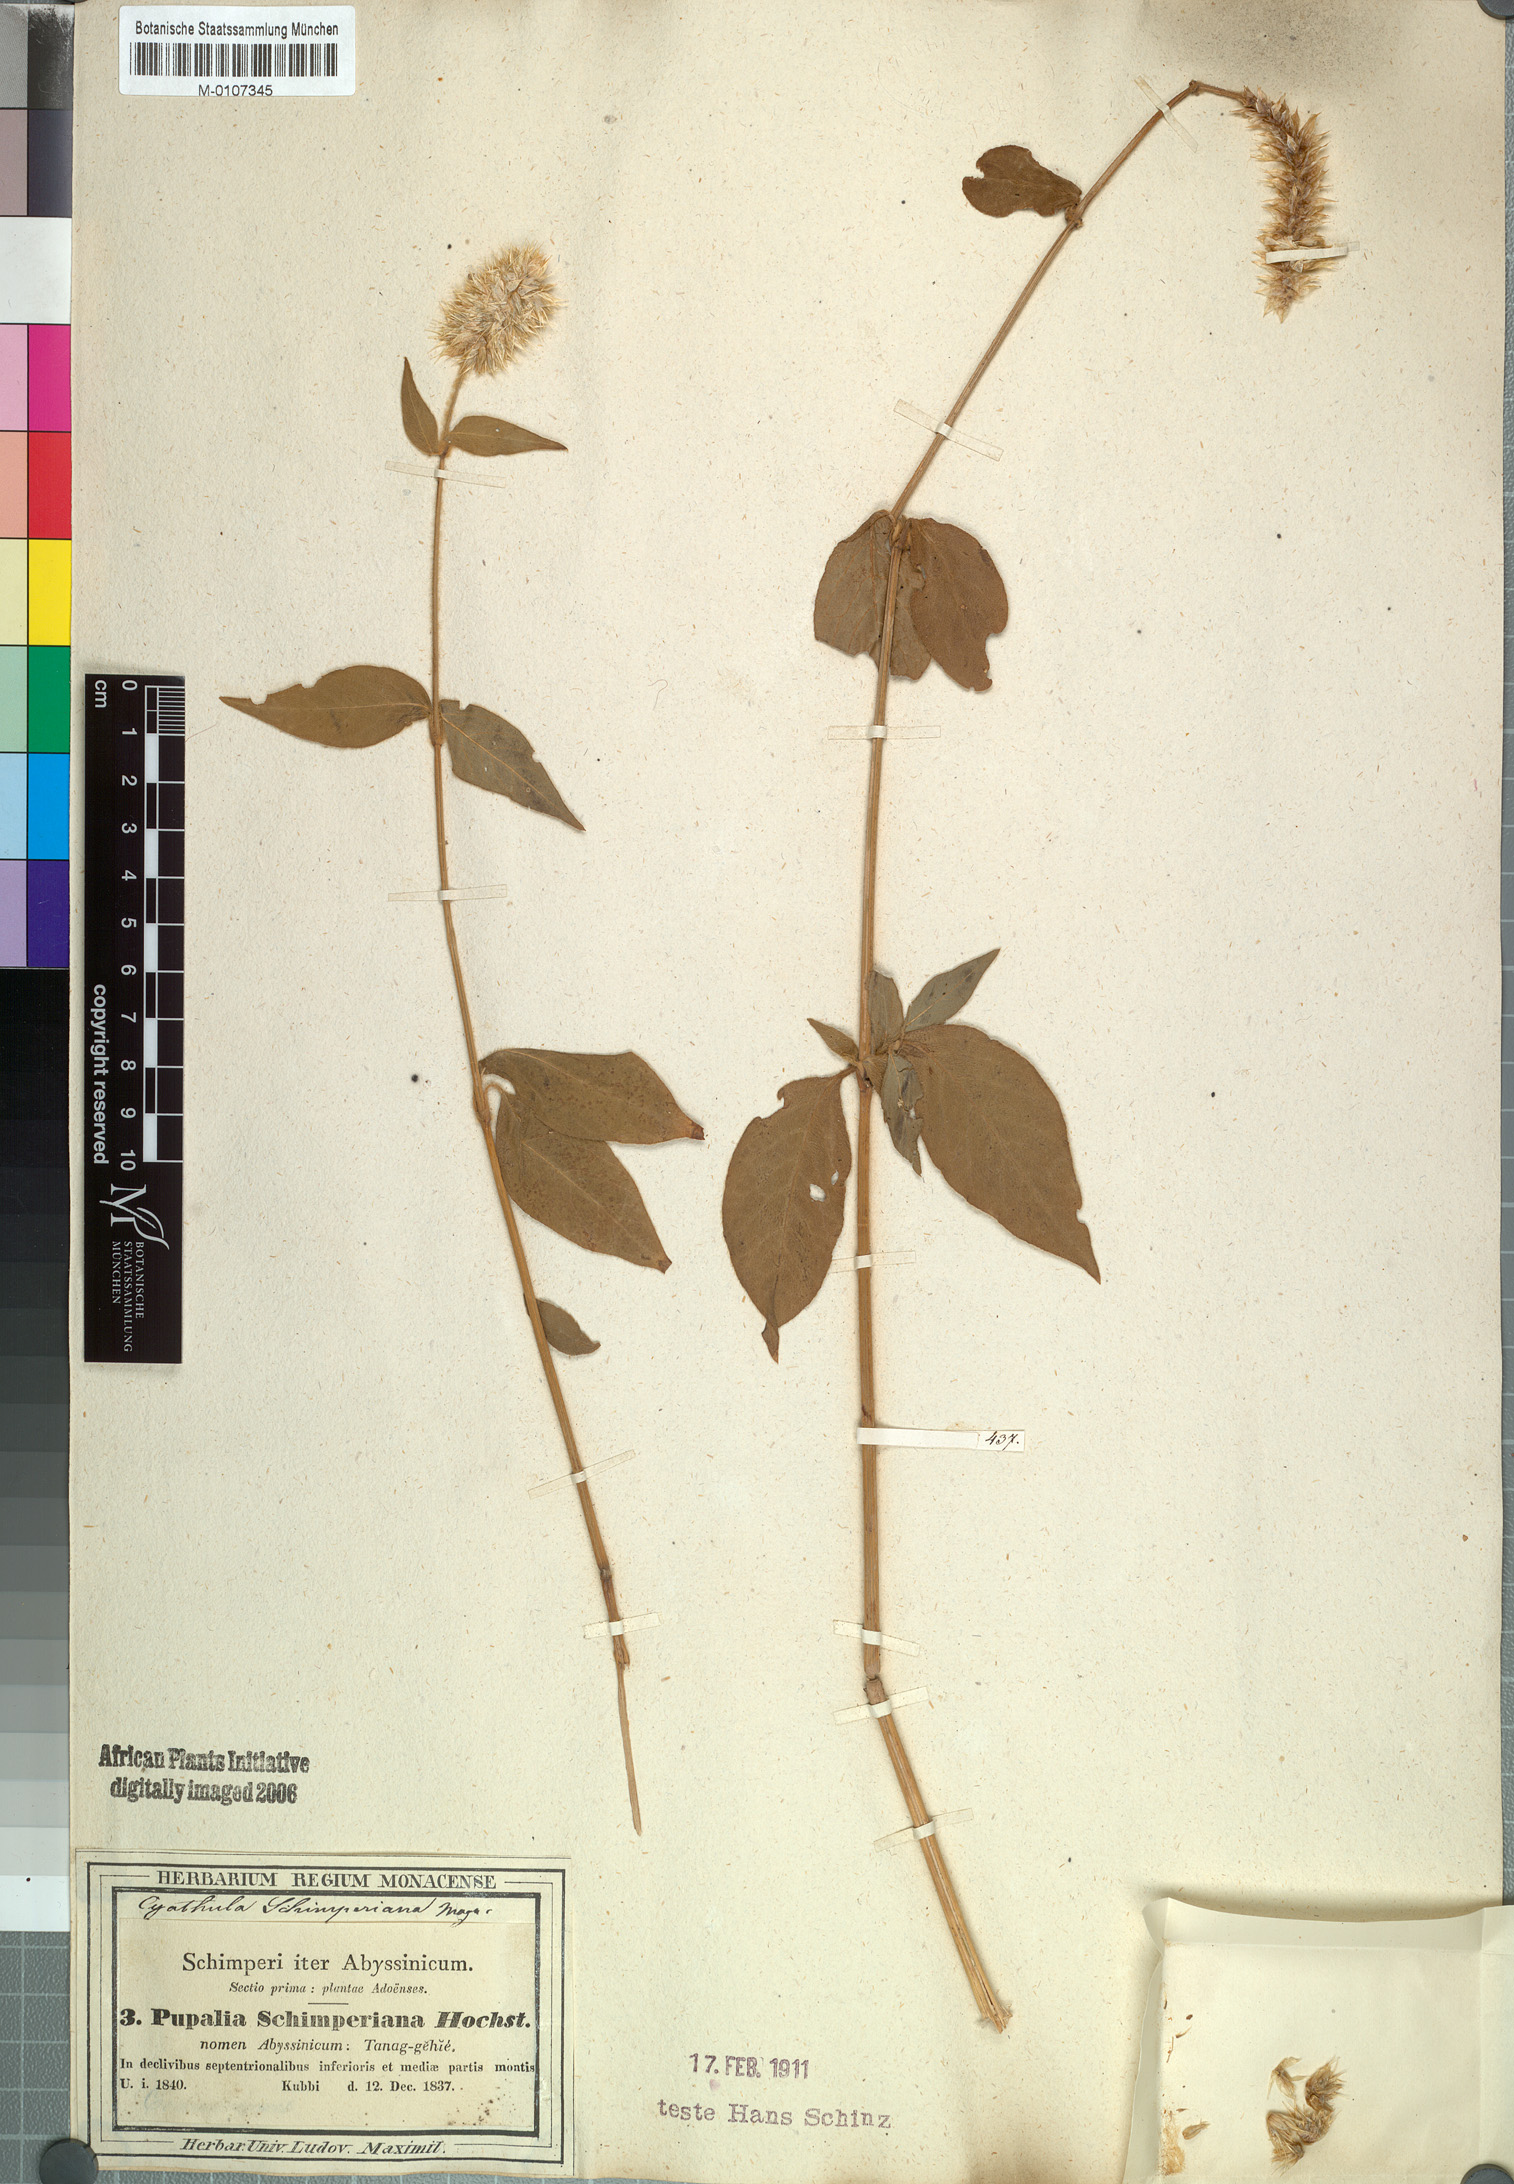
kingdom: Plantae
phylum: Tracheophyta
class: Magnoliopsida
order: Caryophyllales
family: Amaranthaceae
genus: Cyathula
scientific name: Cyathula cylindrica
